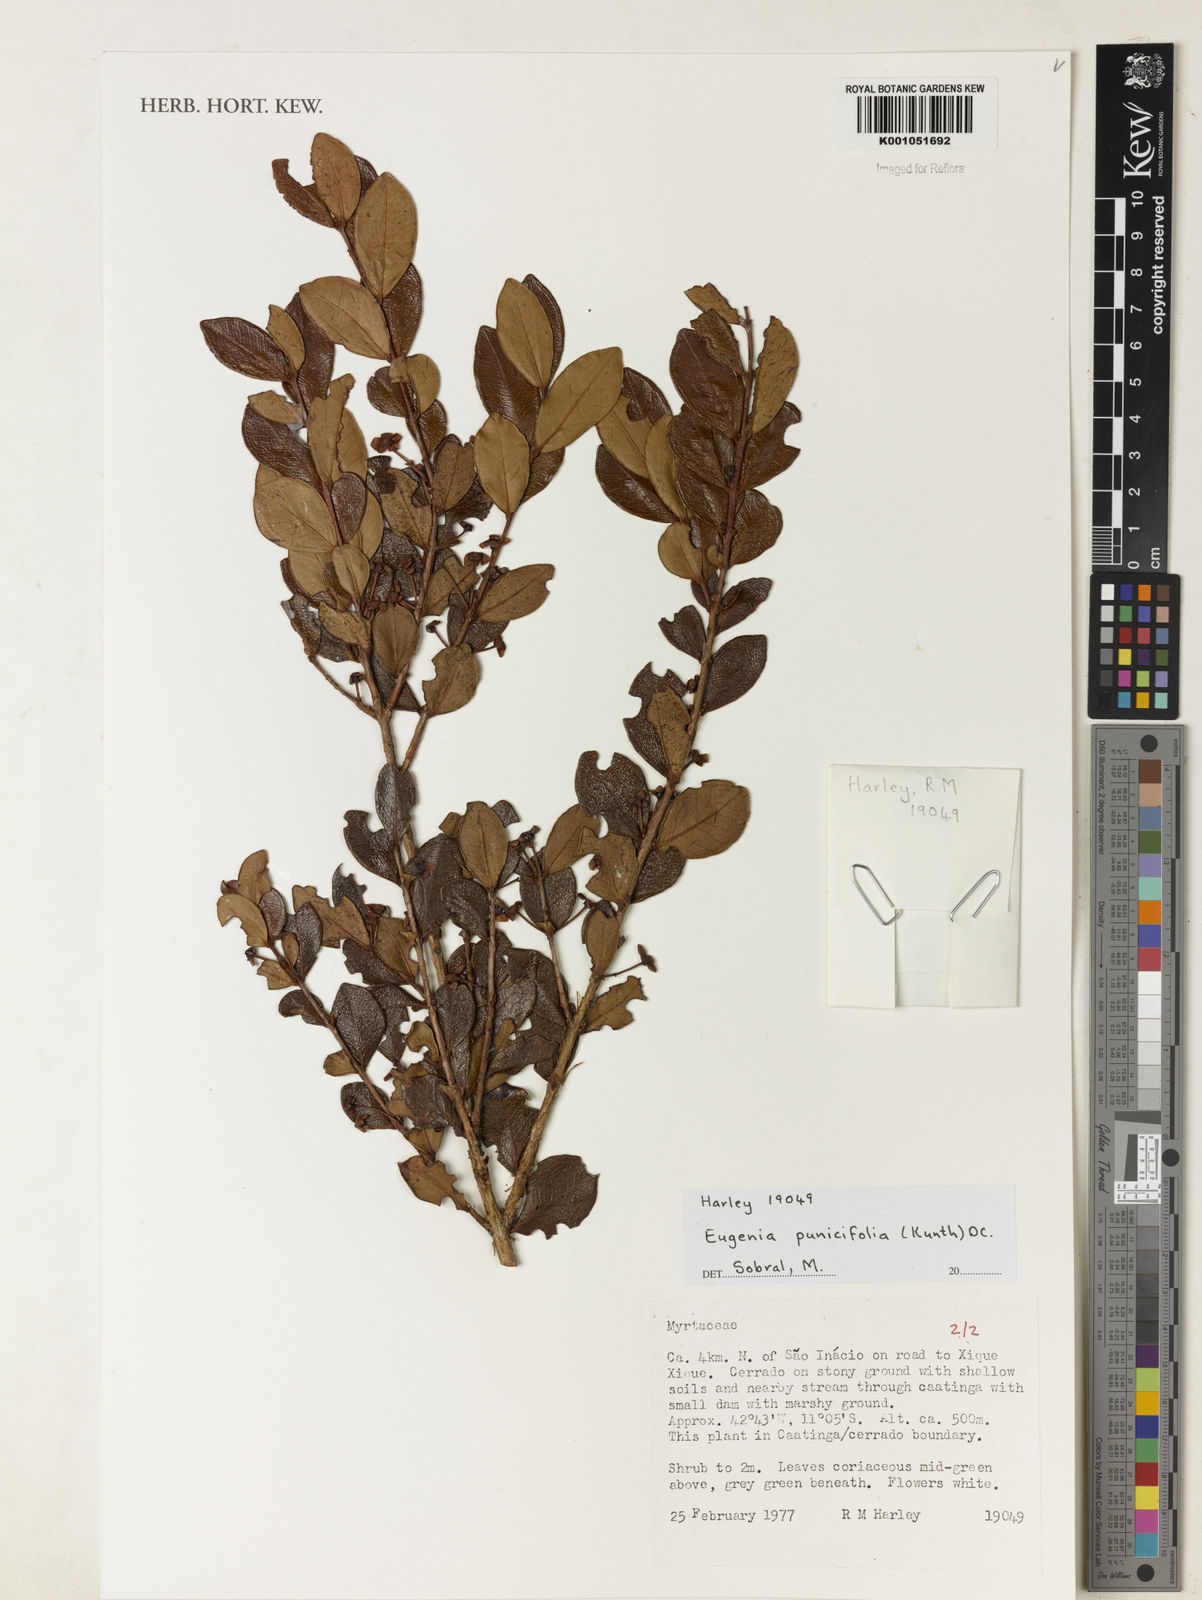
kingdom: Plantae
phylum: Tracheophyta
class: Magnoliopsida
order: Myrtales
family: Myrtaceae
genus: Eugenia
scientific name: Eugenia punicifolia
